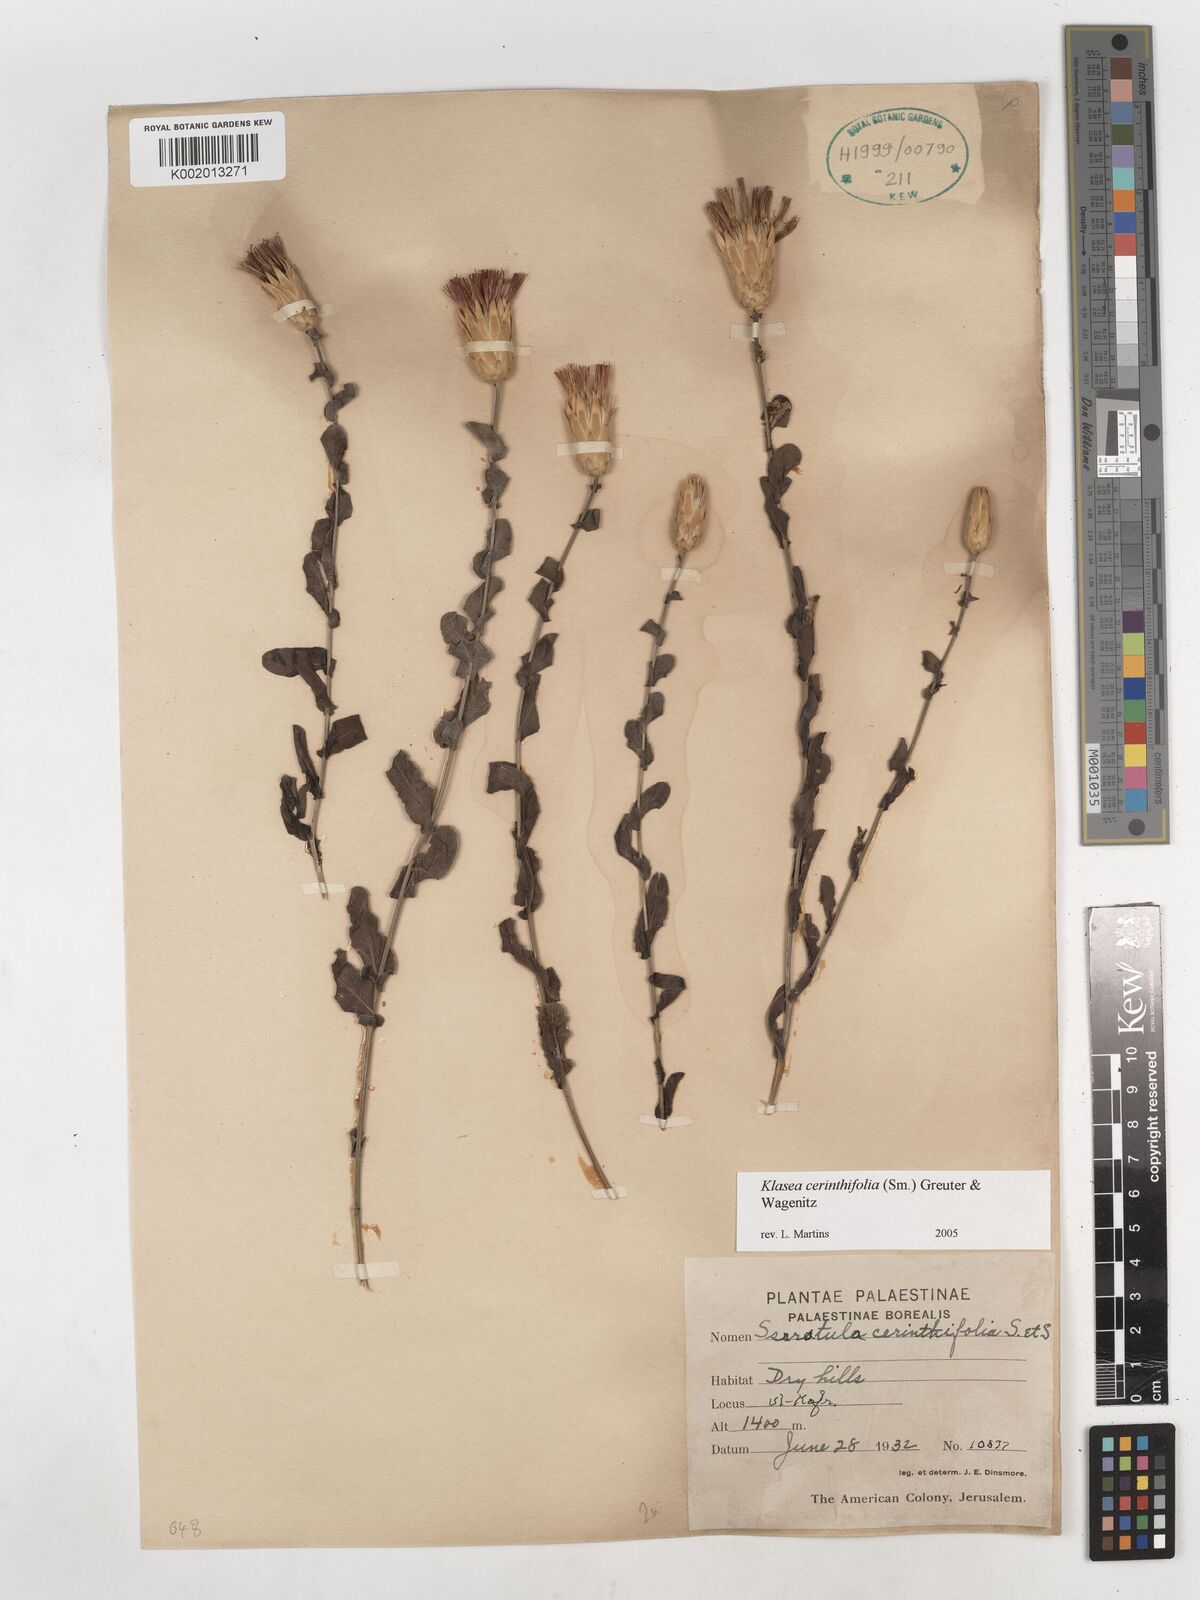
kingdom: Plantae
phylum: Tracheophyta
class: Magnoliopsida
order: Asterales
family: Asteraceae
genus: Klasea
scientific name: Klasea cerinthifolia
